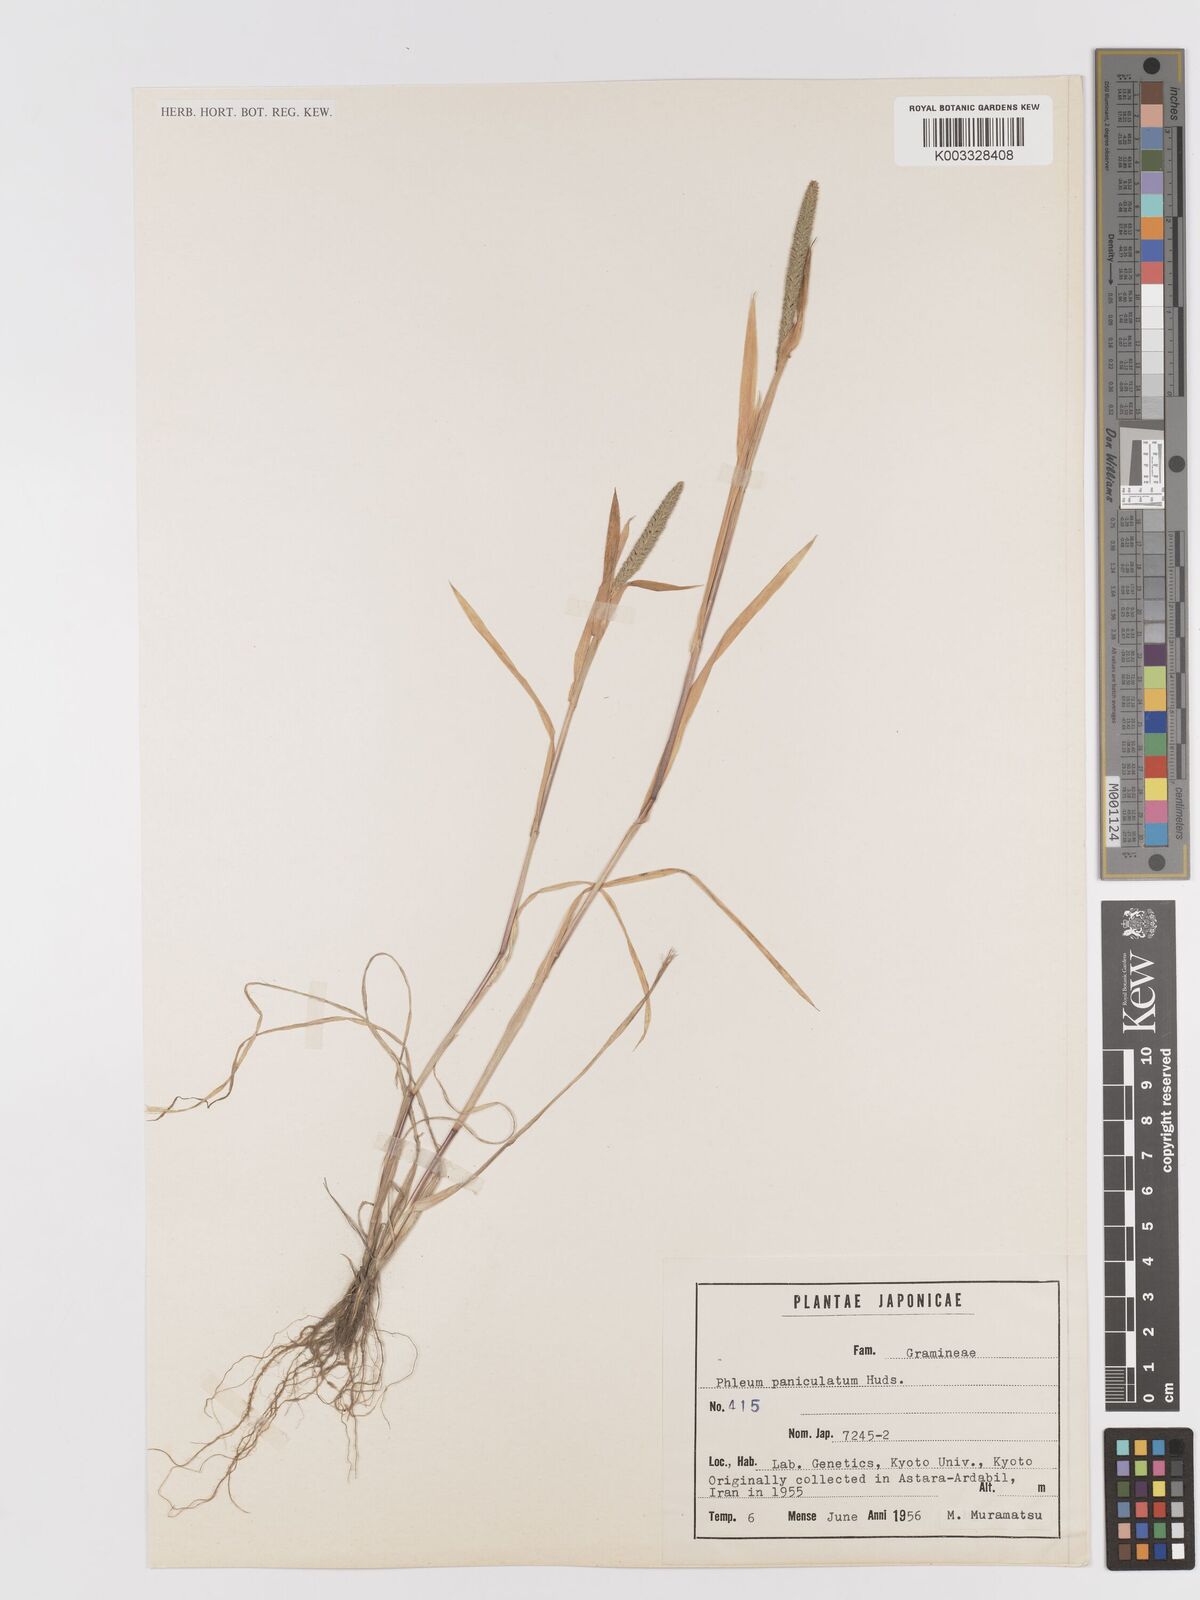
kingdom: Plantae
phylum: Tracheophyta
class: Liliopsida
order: Poales
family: Poaceae
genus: Phleum
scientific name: Phleum paniculatum
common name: British timothy
